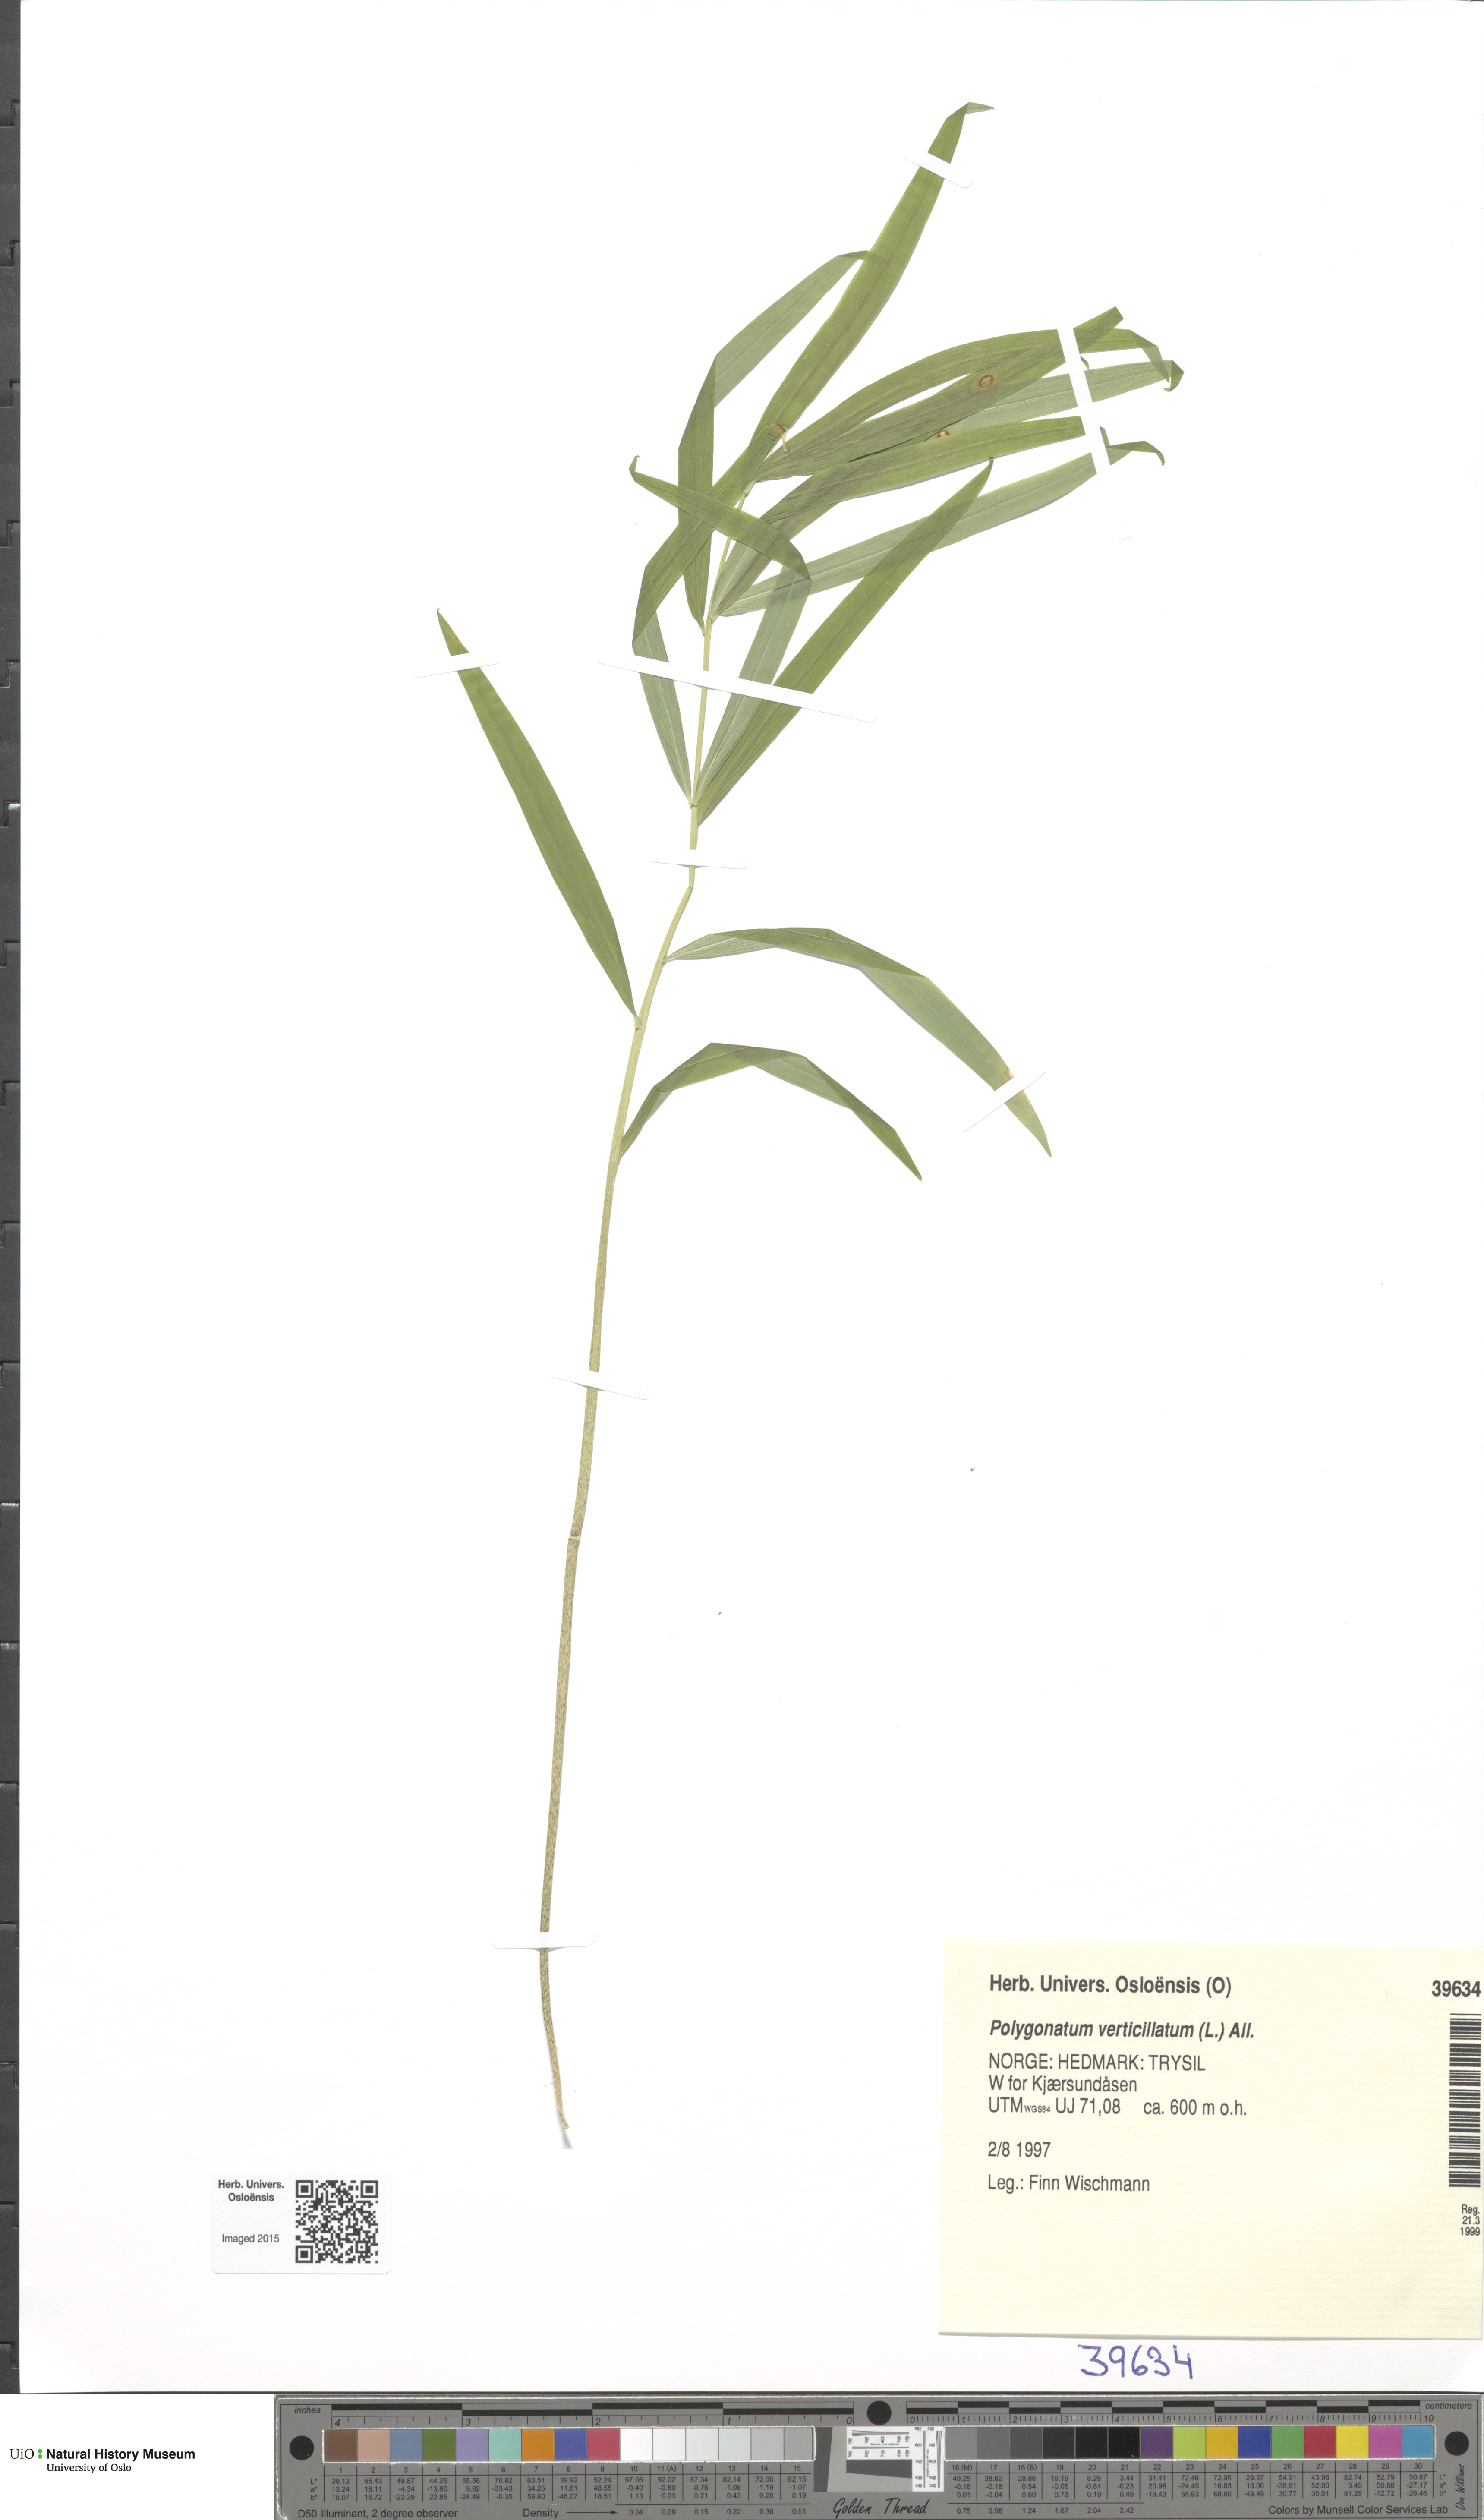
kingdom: Plantae
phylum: Tracheophyta
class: Liliopsida
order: Asparagales
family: Asparagaceae
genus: Polygonatum
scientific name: Polygonatum verticillatum
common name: Whorled solomon's-seal
